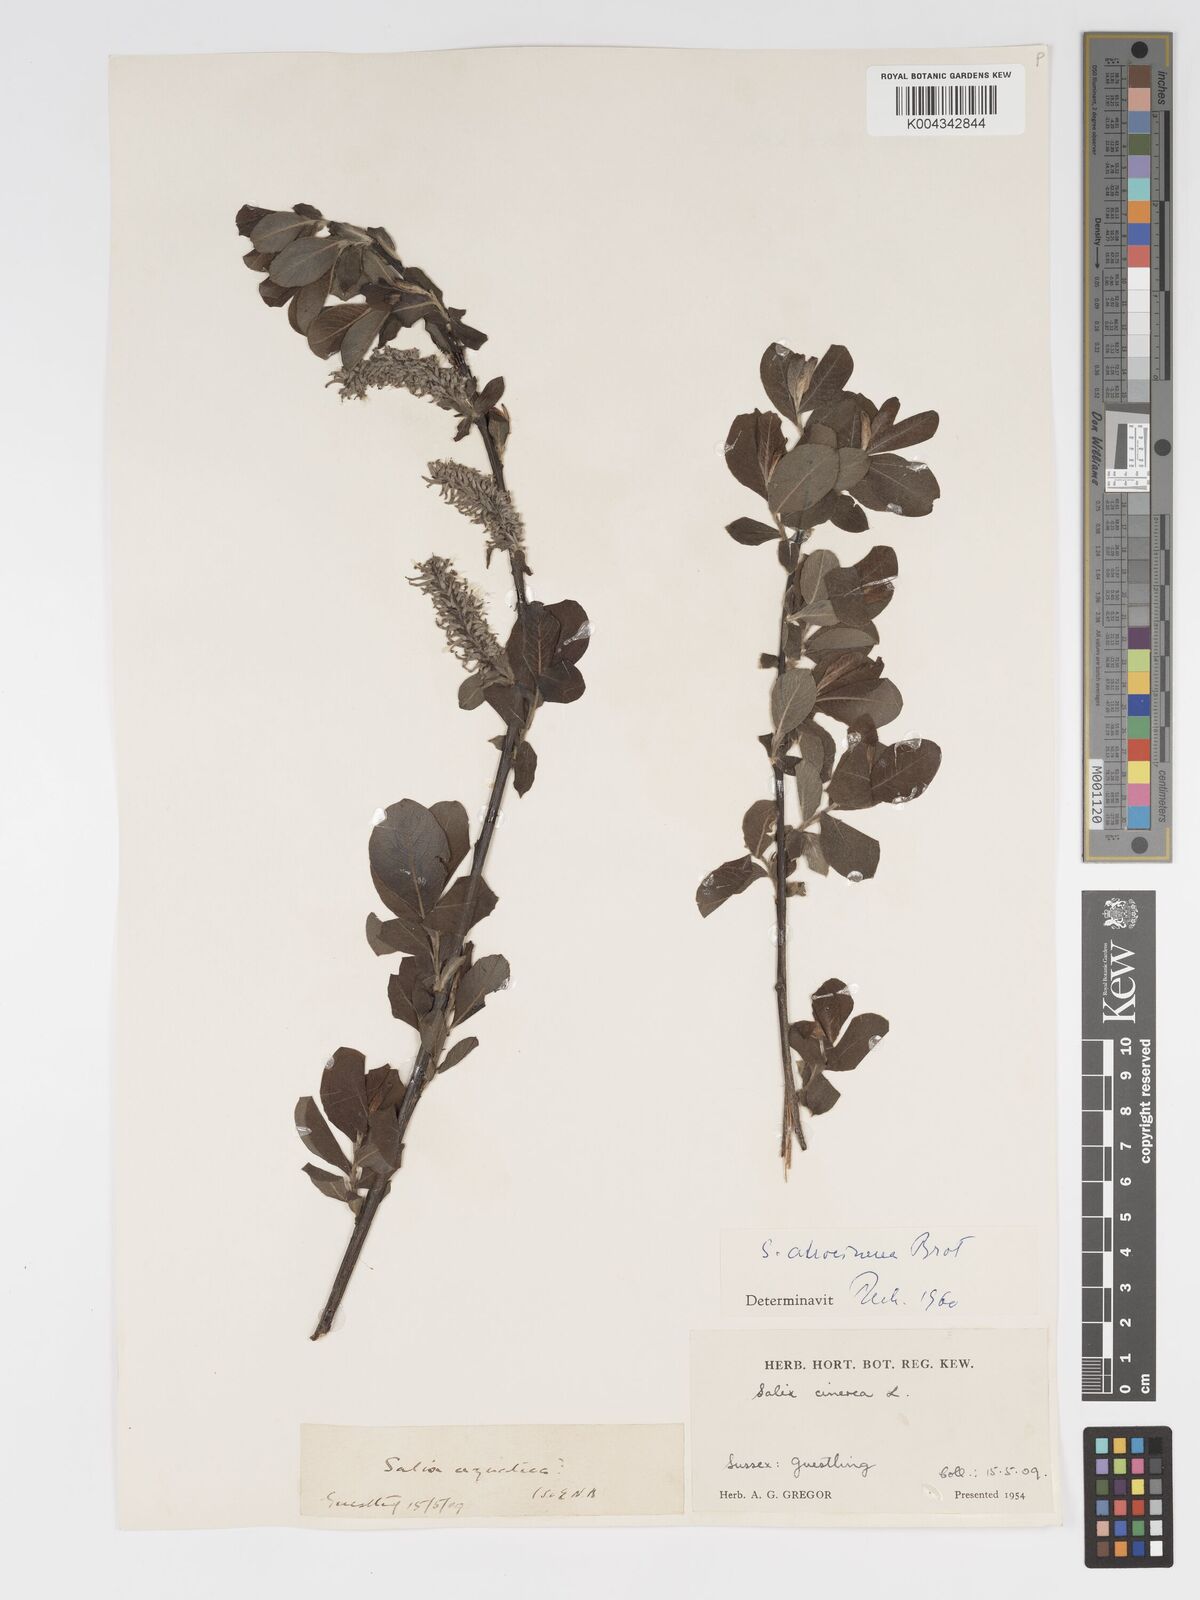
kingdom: Plantae
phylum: Tracheophyta
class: Magnoliopsida
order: Malpighiales
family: Salicaceae
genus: Salix
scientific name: Salix atrocinerea
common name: Rusty willow
